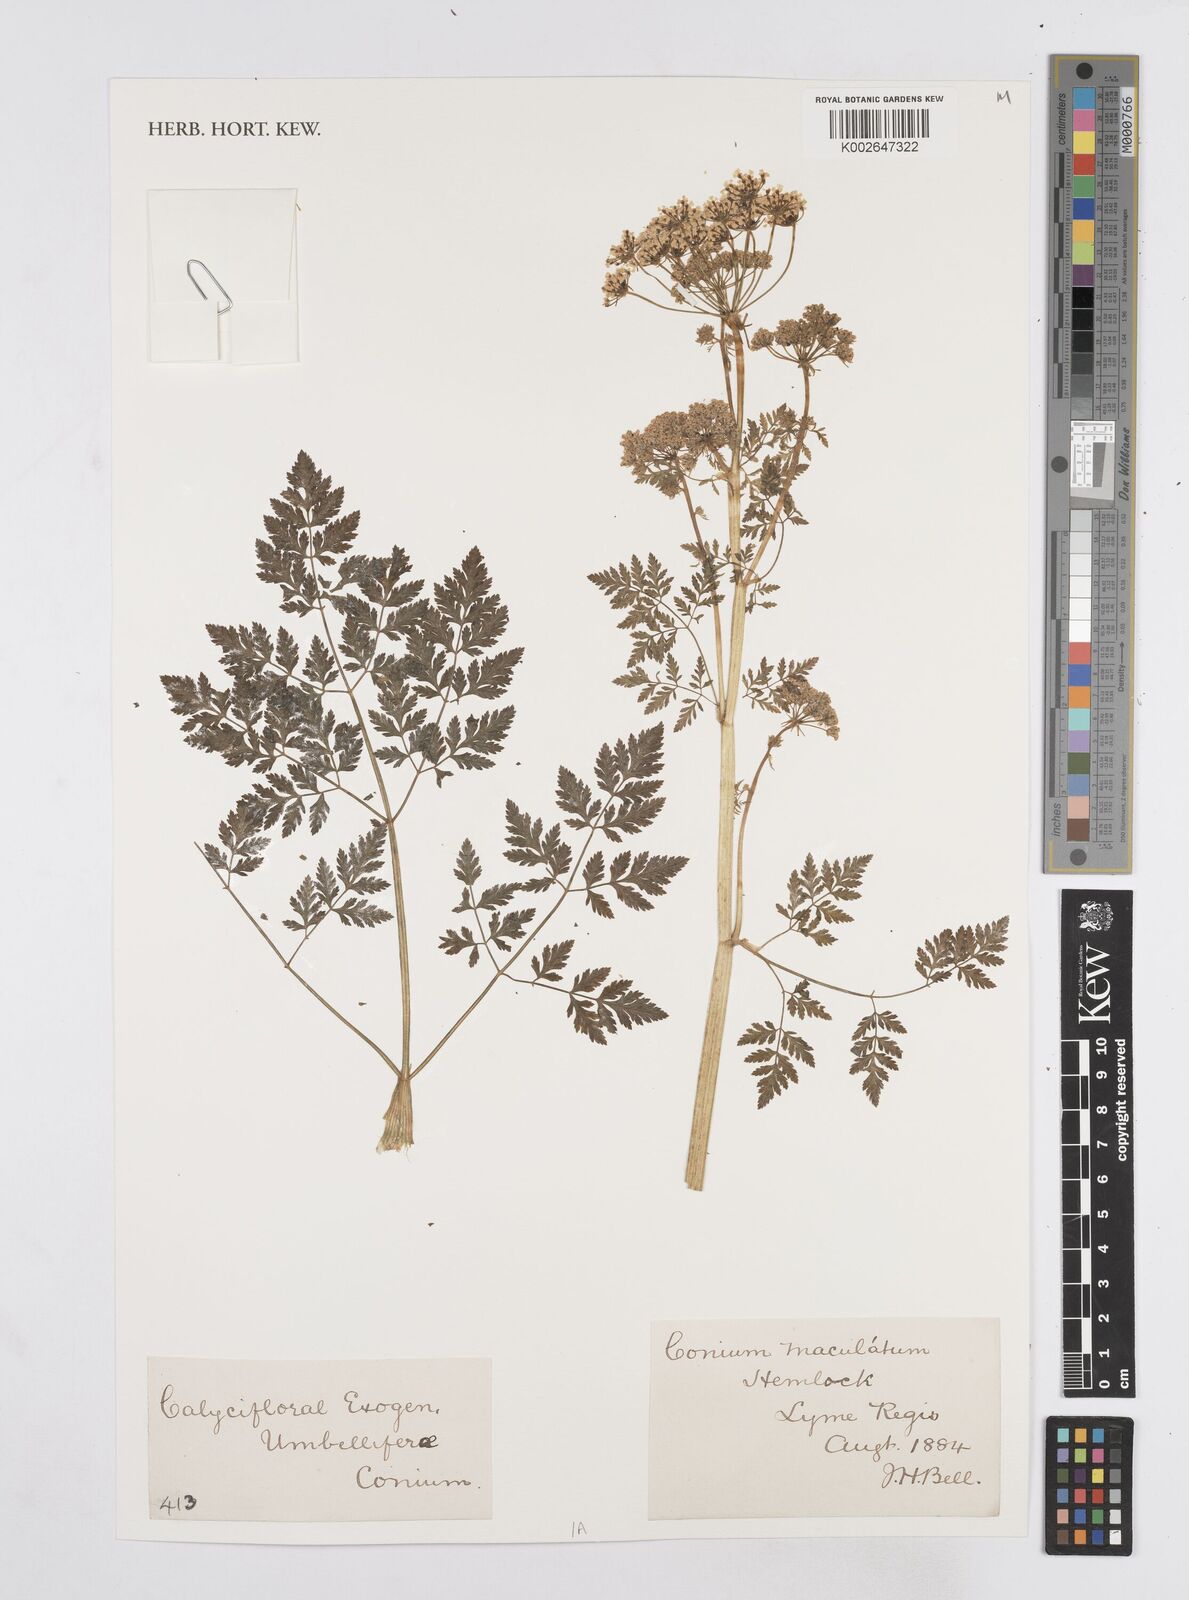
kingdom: Plantae
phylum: Tracheophyta
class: Magnoliopsida
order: Apiales
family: Apiaceae
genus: Conium
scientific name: Conium maculatum
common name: Hemlock
